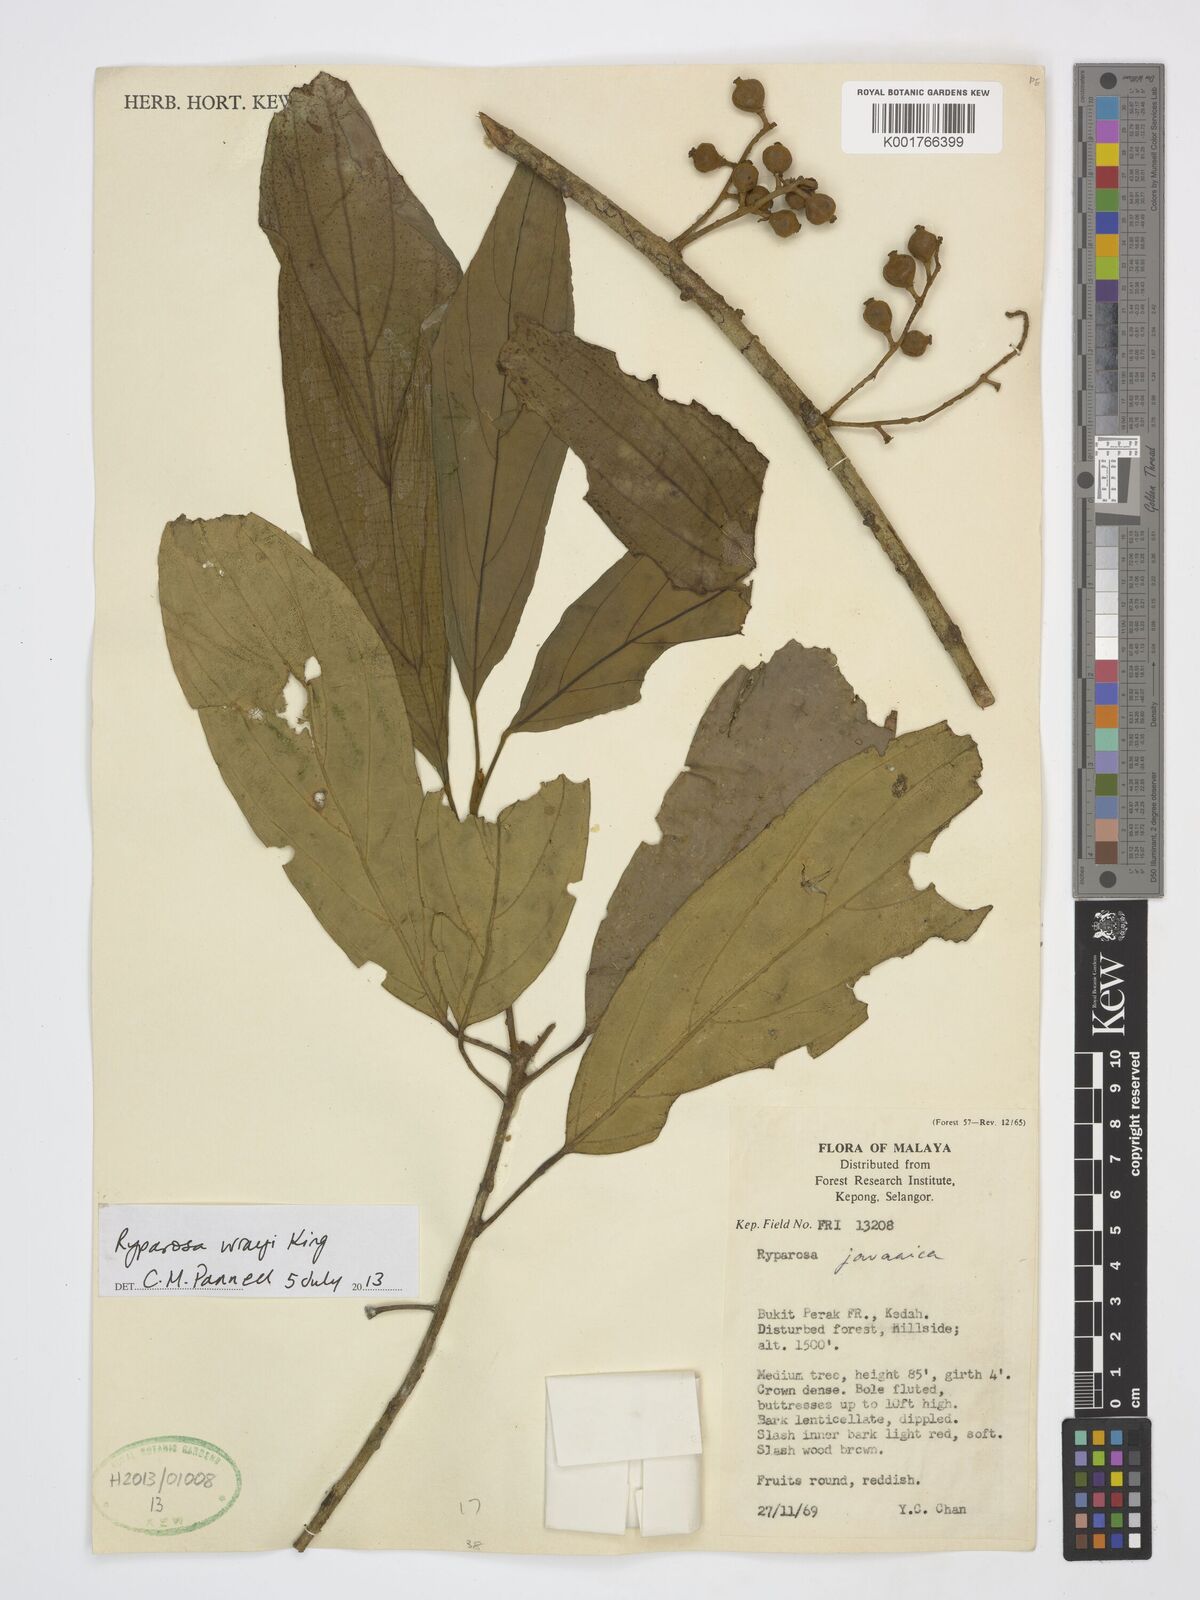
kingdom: Plantae
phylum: Tracheophyta
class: Magnoliopsida
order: Malpighiales
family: Achariaceae
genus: Ryparosa
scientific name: Ryparosa wrayi
